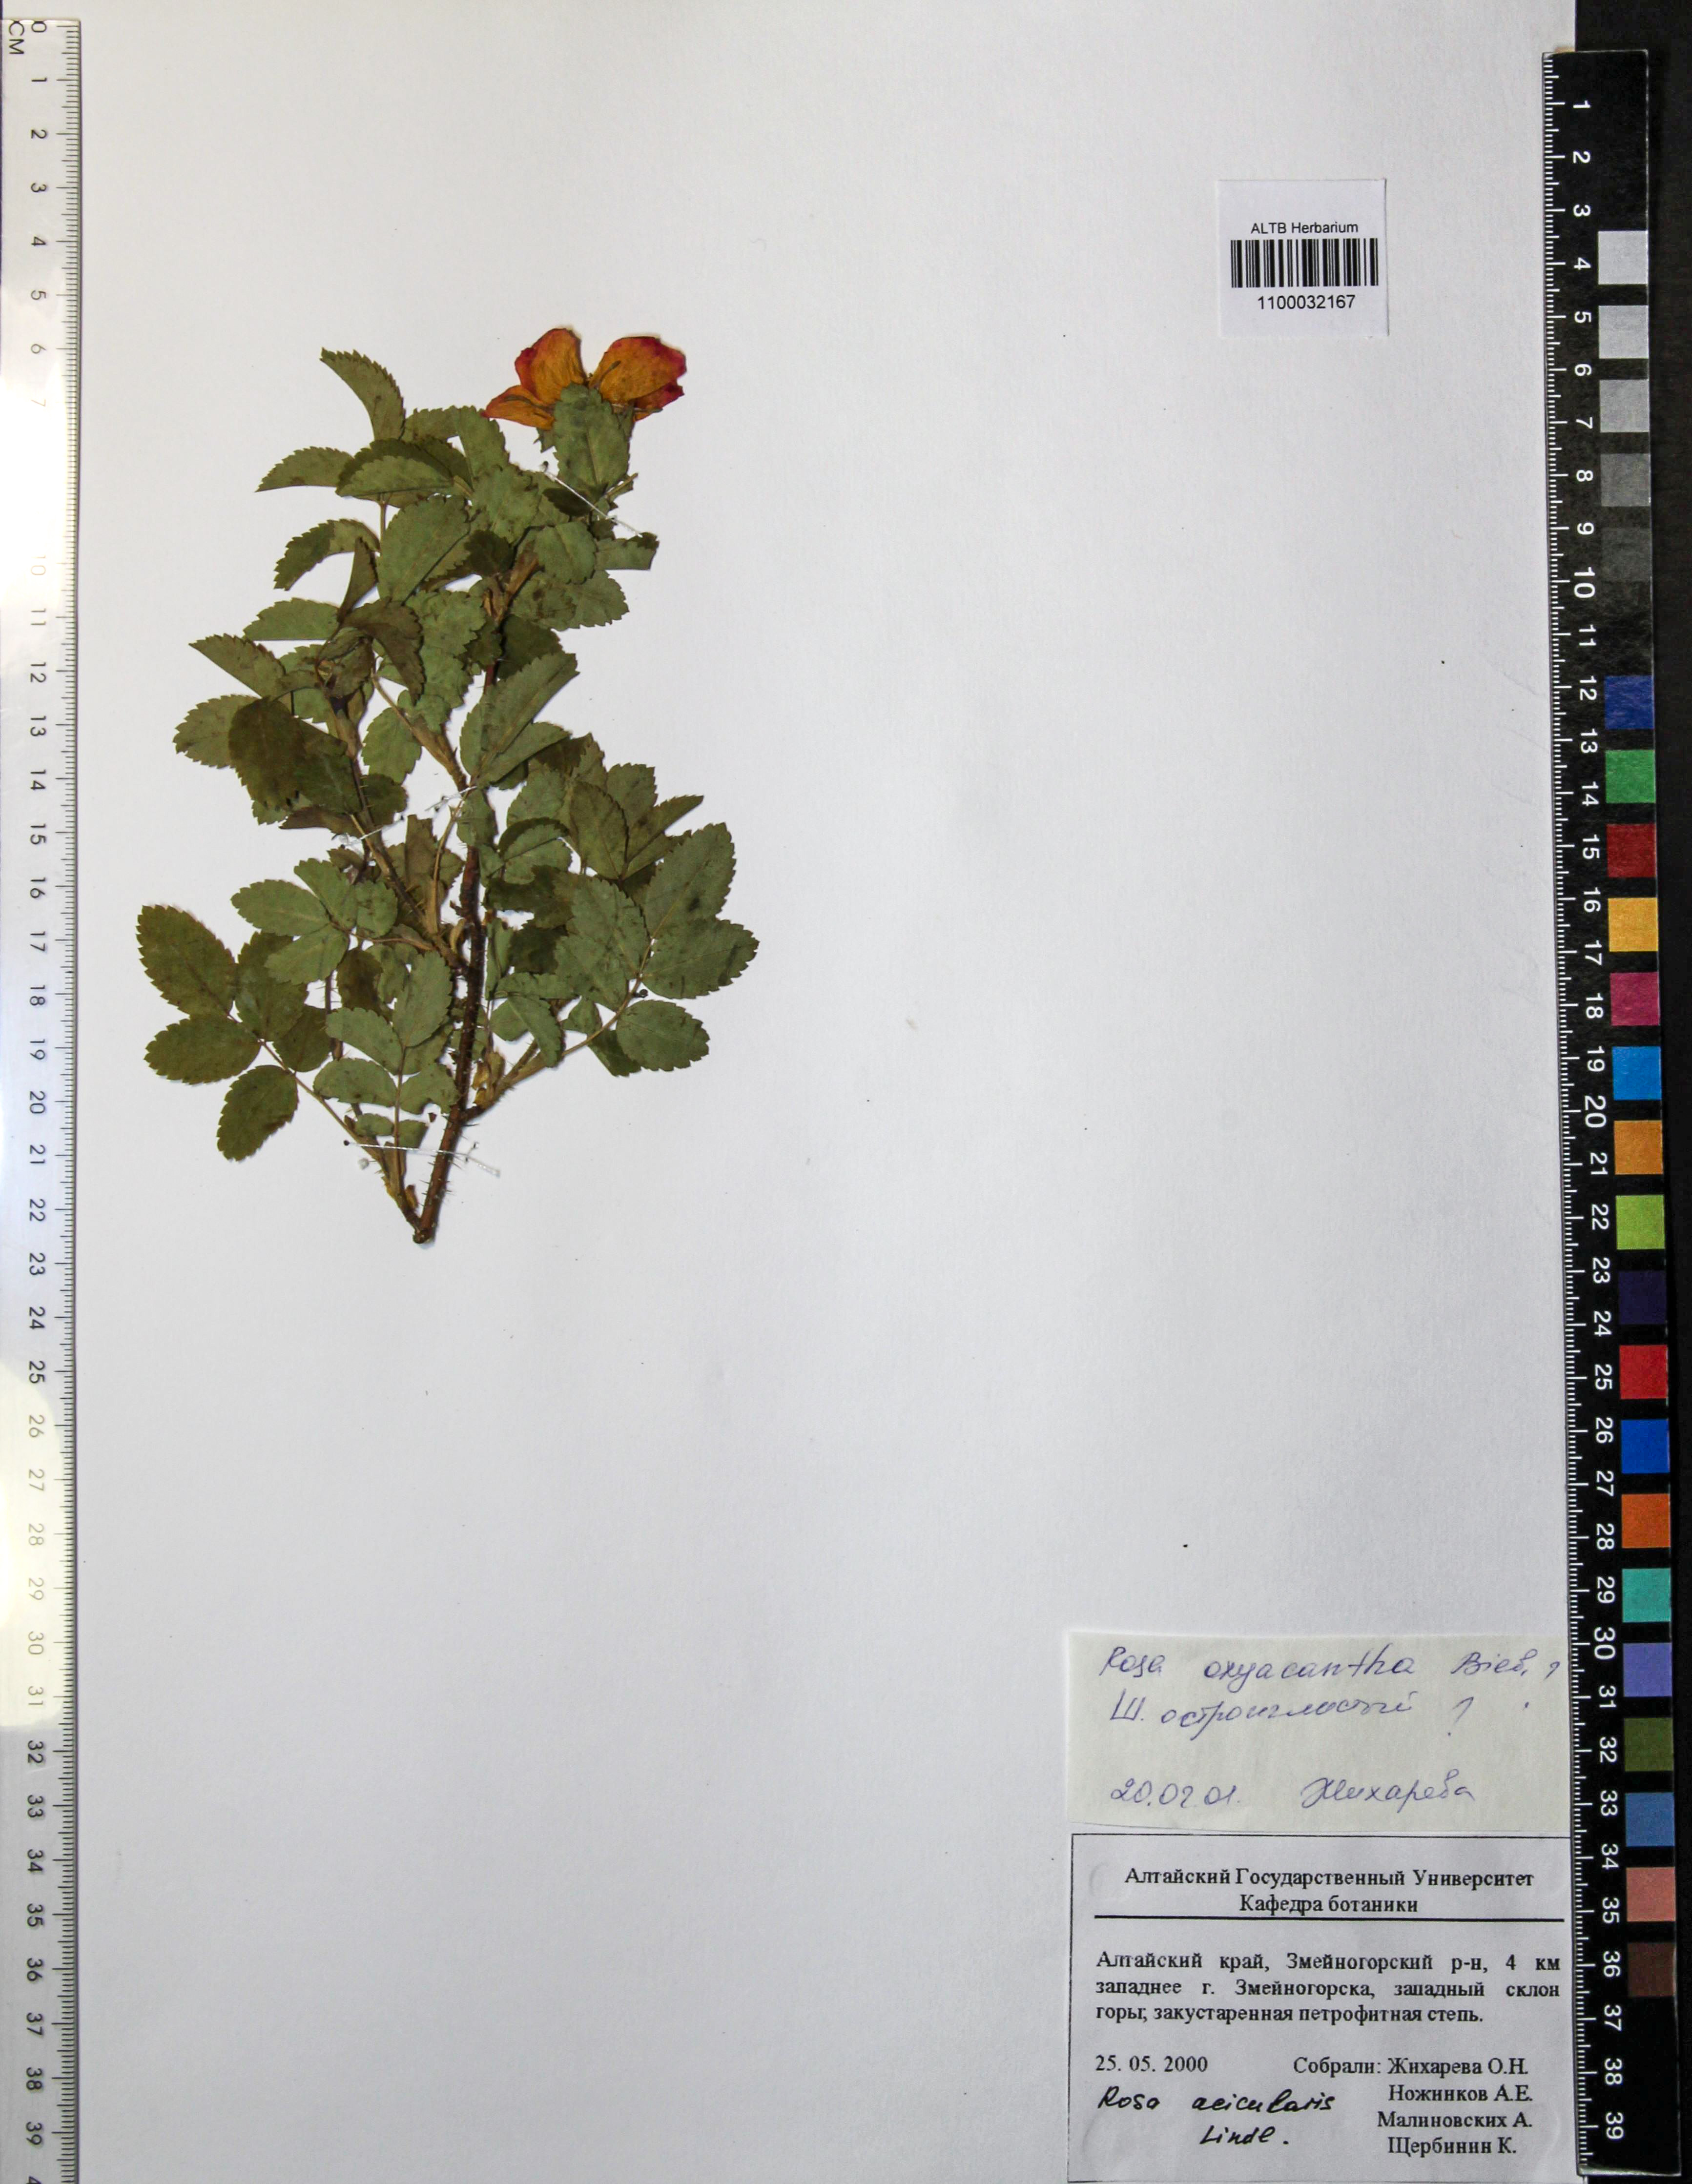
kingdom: Plantae
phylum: Tracheophyta
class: Magnoliopsida
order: Rosales
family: Rosaceae
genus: Rosa
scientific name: Rosa oxyacantha
